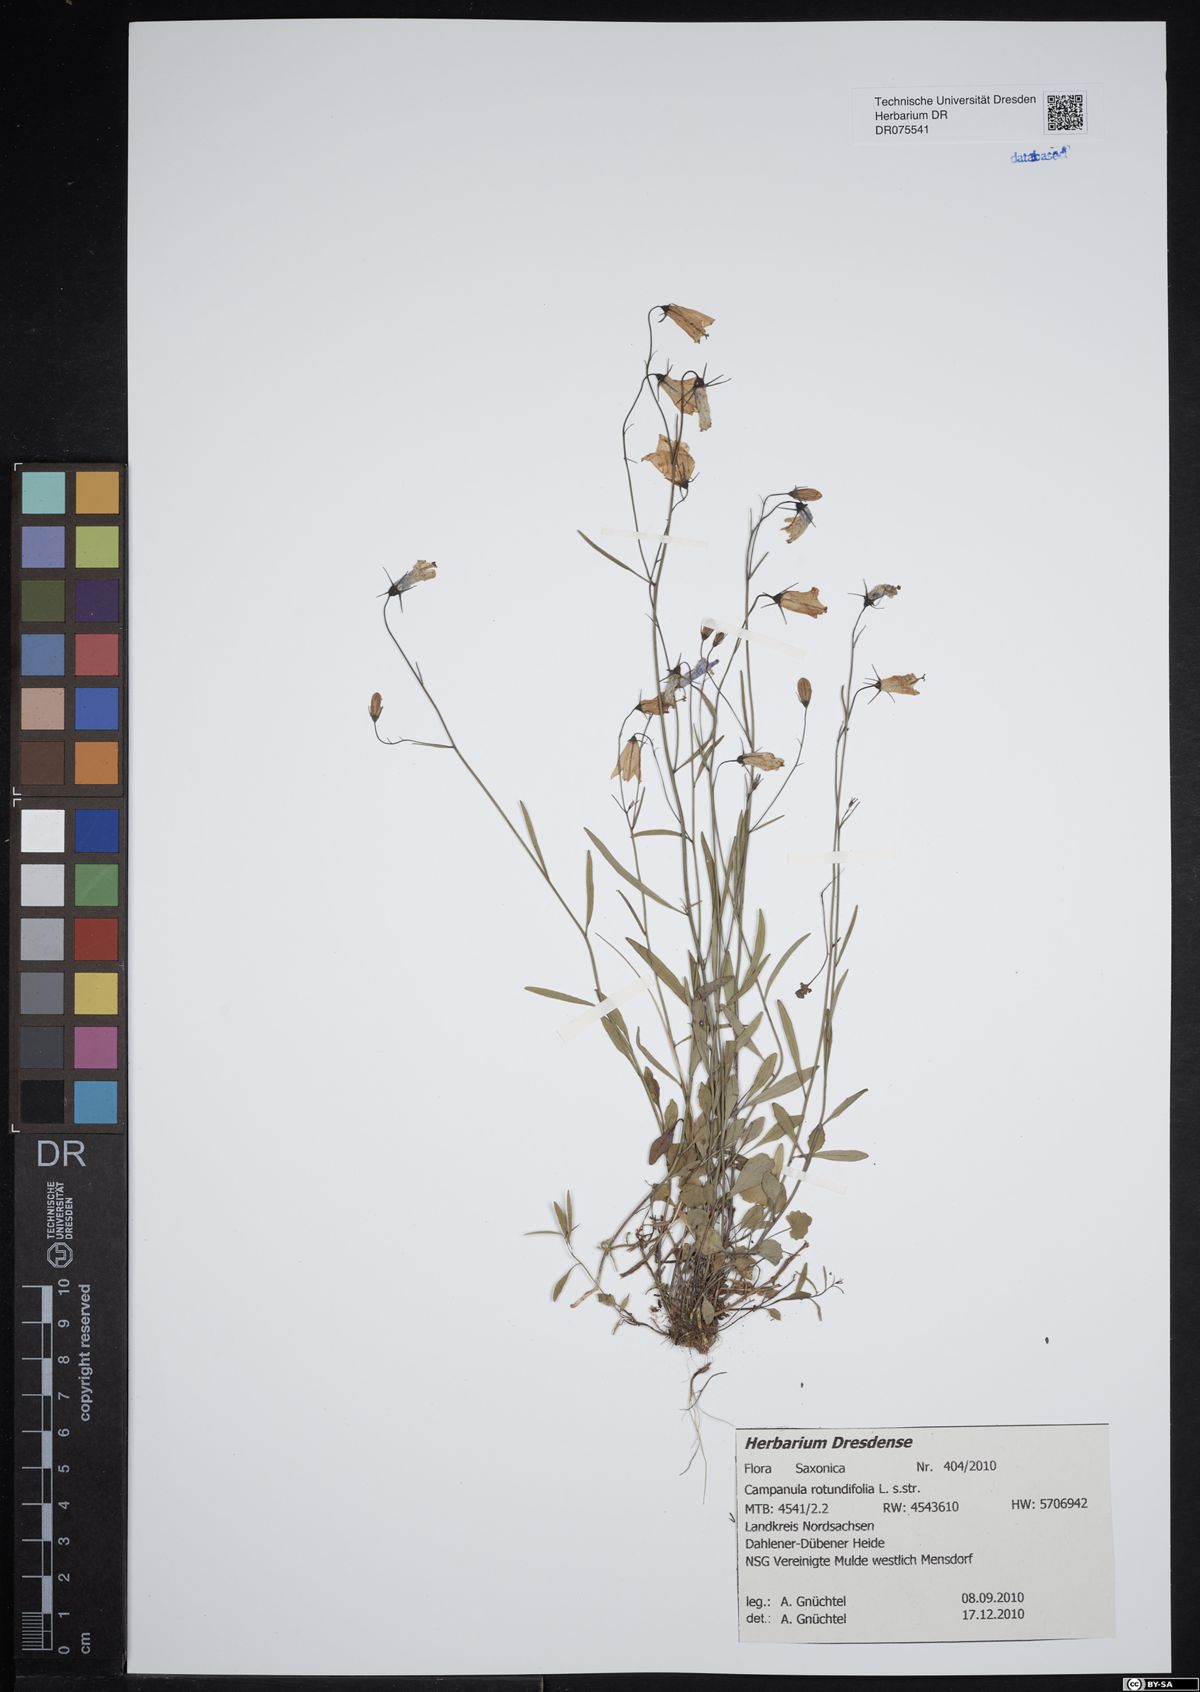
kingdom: Plantae
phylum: Tracheophyta
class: Magnoliopsida
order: Asterales
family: Campanulaceae
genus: Campanula
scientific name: Campanula rotundifolia
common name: Harebell
